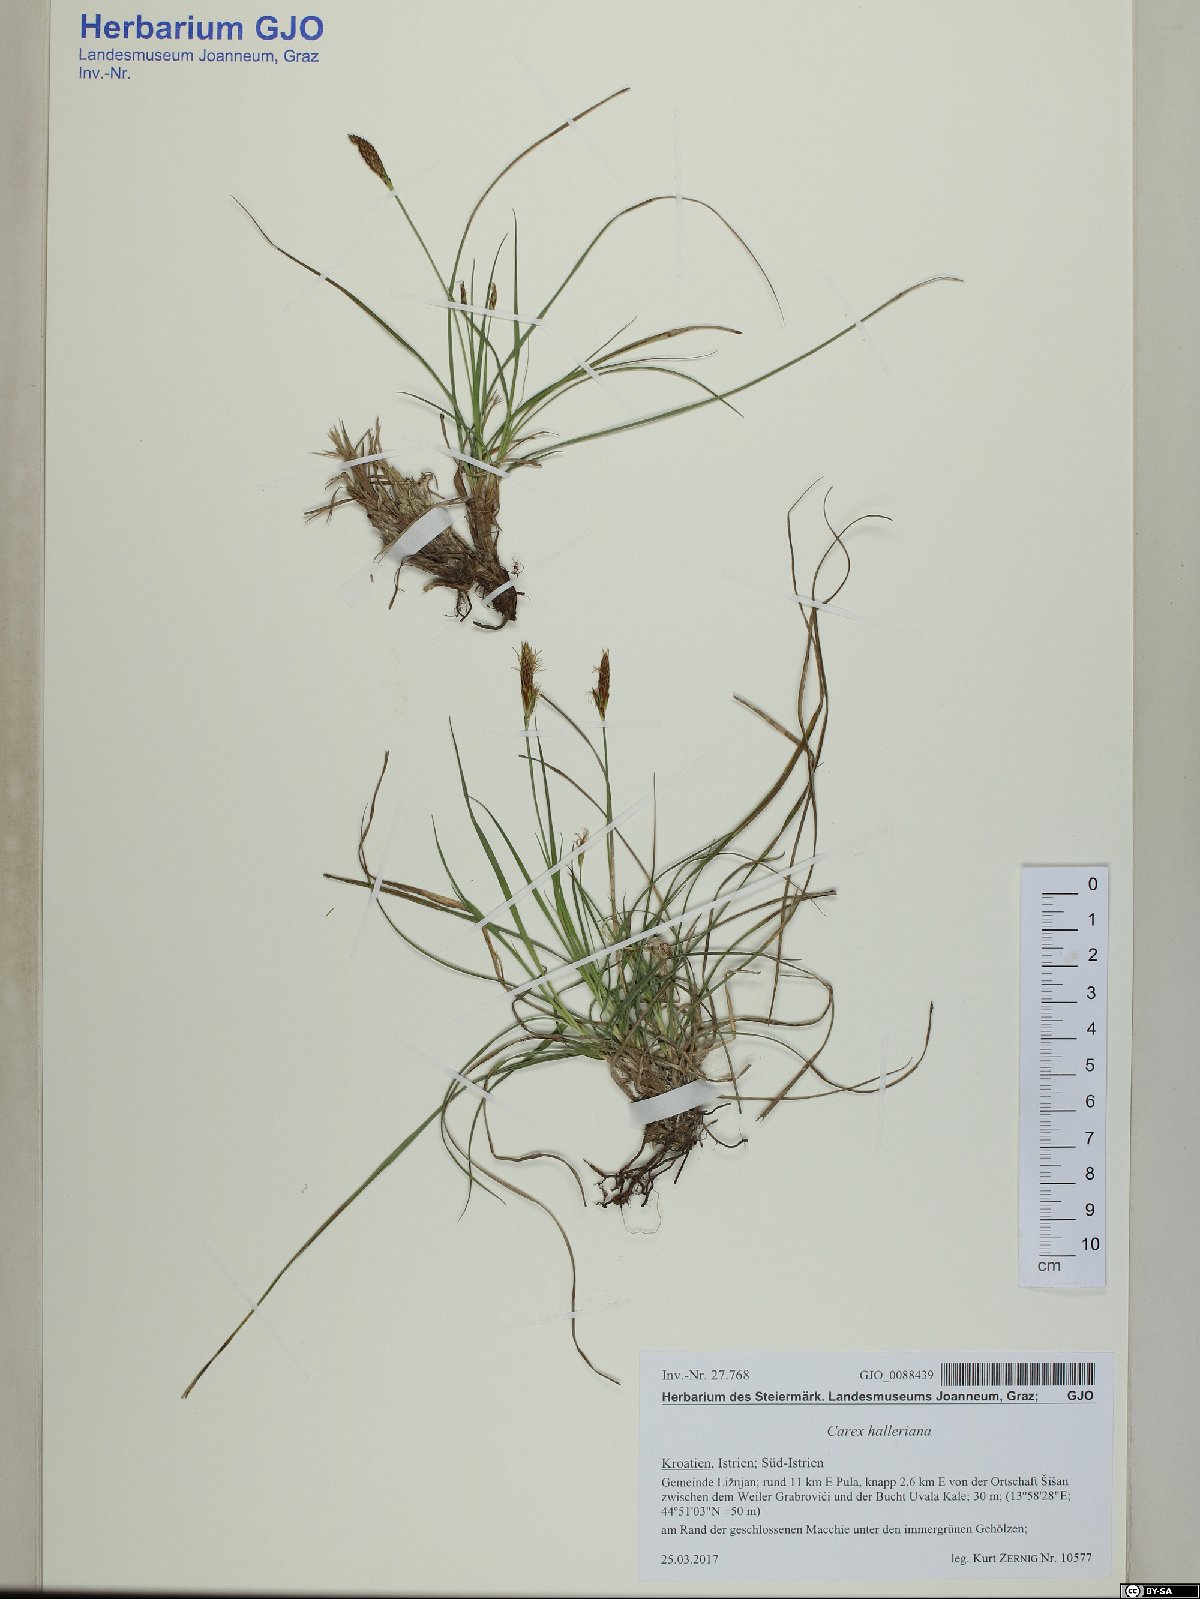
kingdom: Plantae
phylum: Tracheophyta
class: Liliopsida
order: Poales
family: Cyperaceae
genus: Carex
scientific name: Carex halleriana
